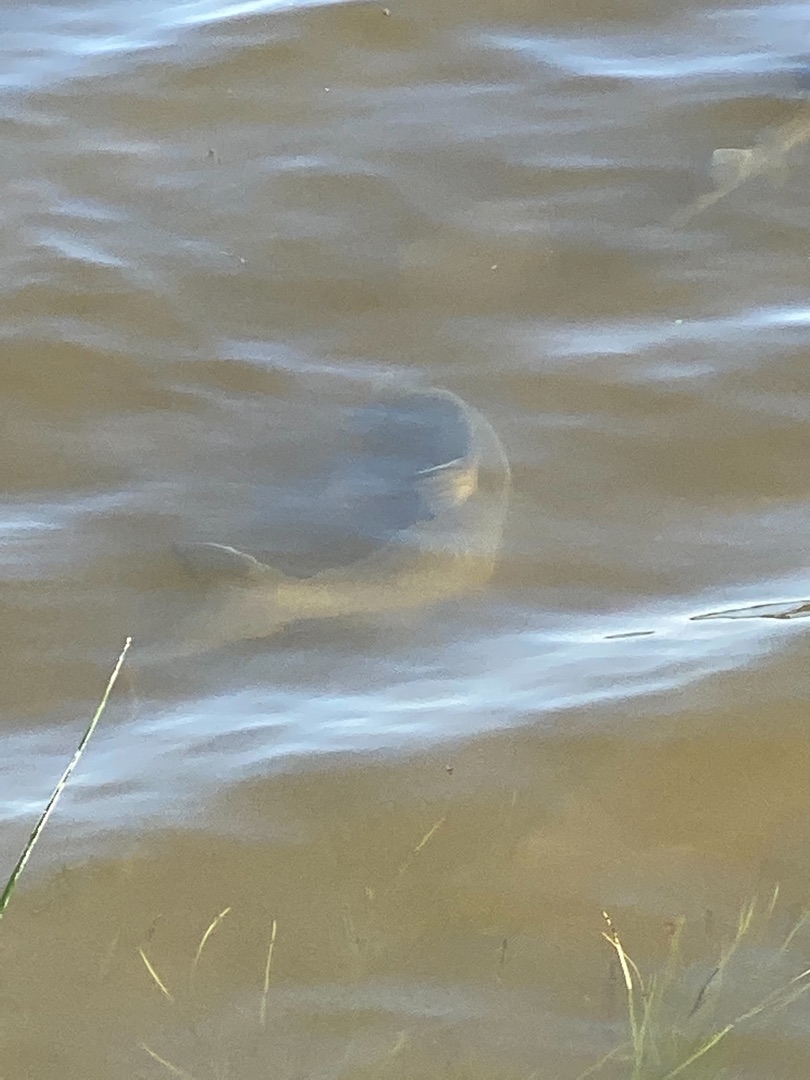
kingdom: Animalia
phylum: Chordata
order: Cypriniformes
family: Cyprinidae
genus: Abramis
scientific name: Abramis brama
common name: Brasen
